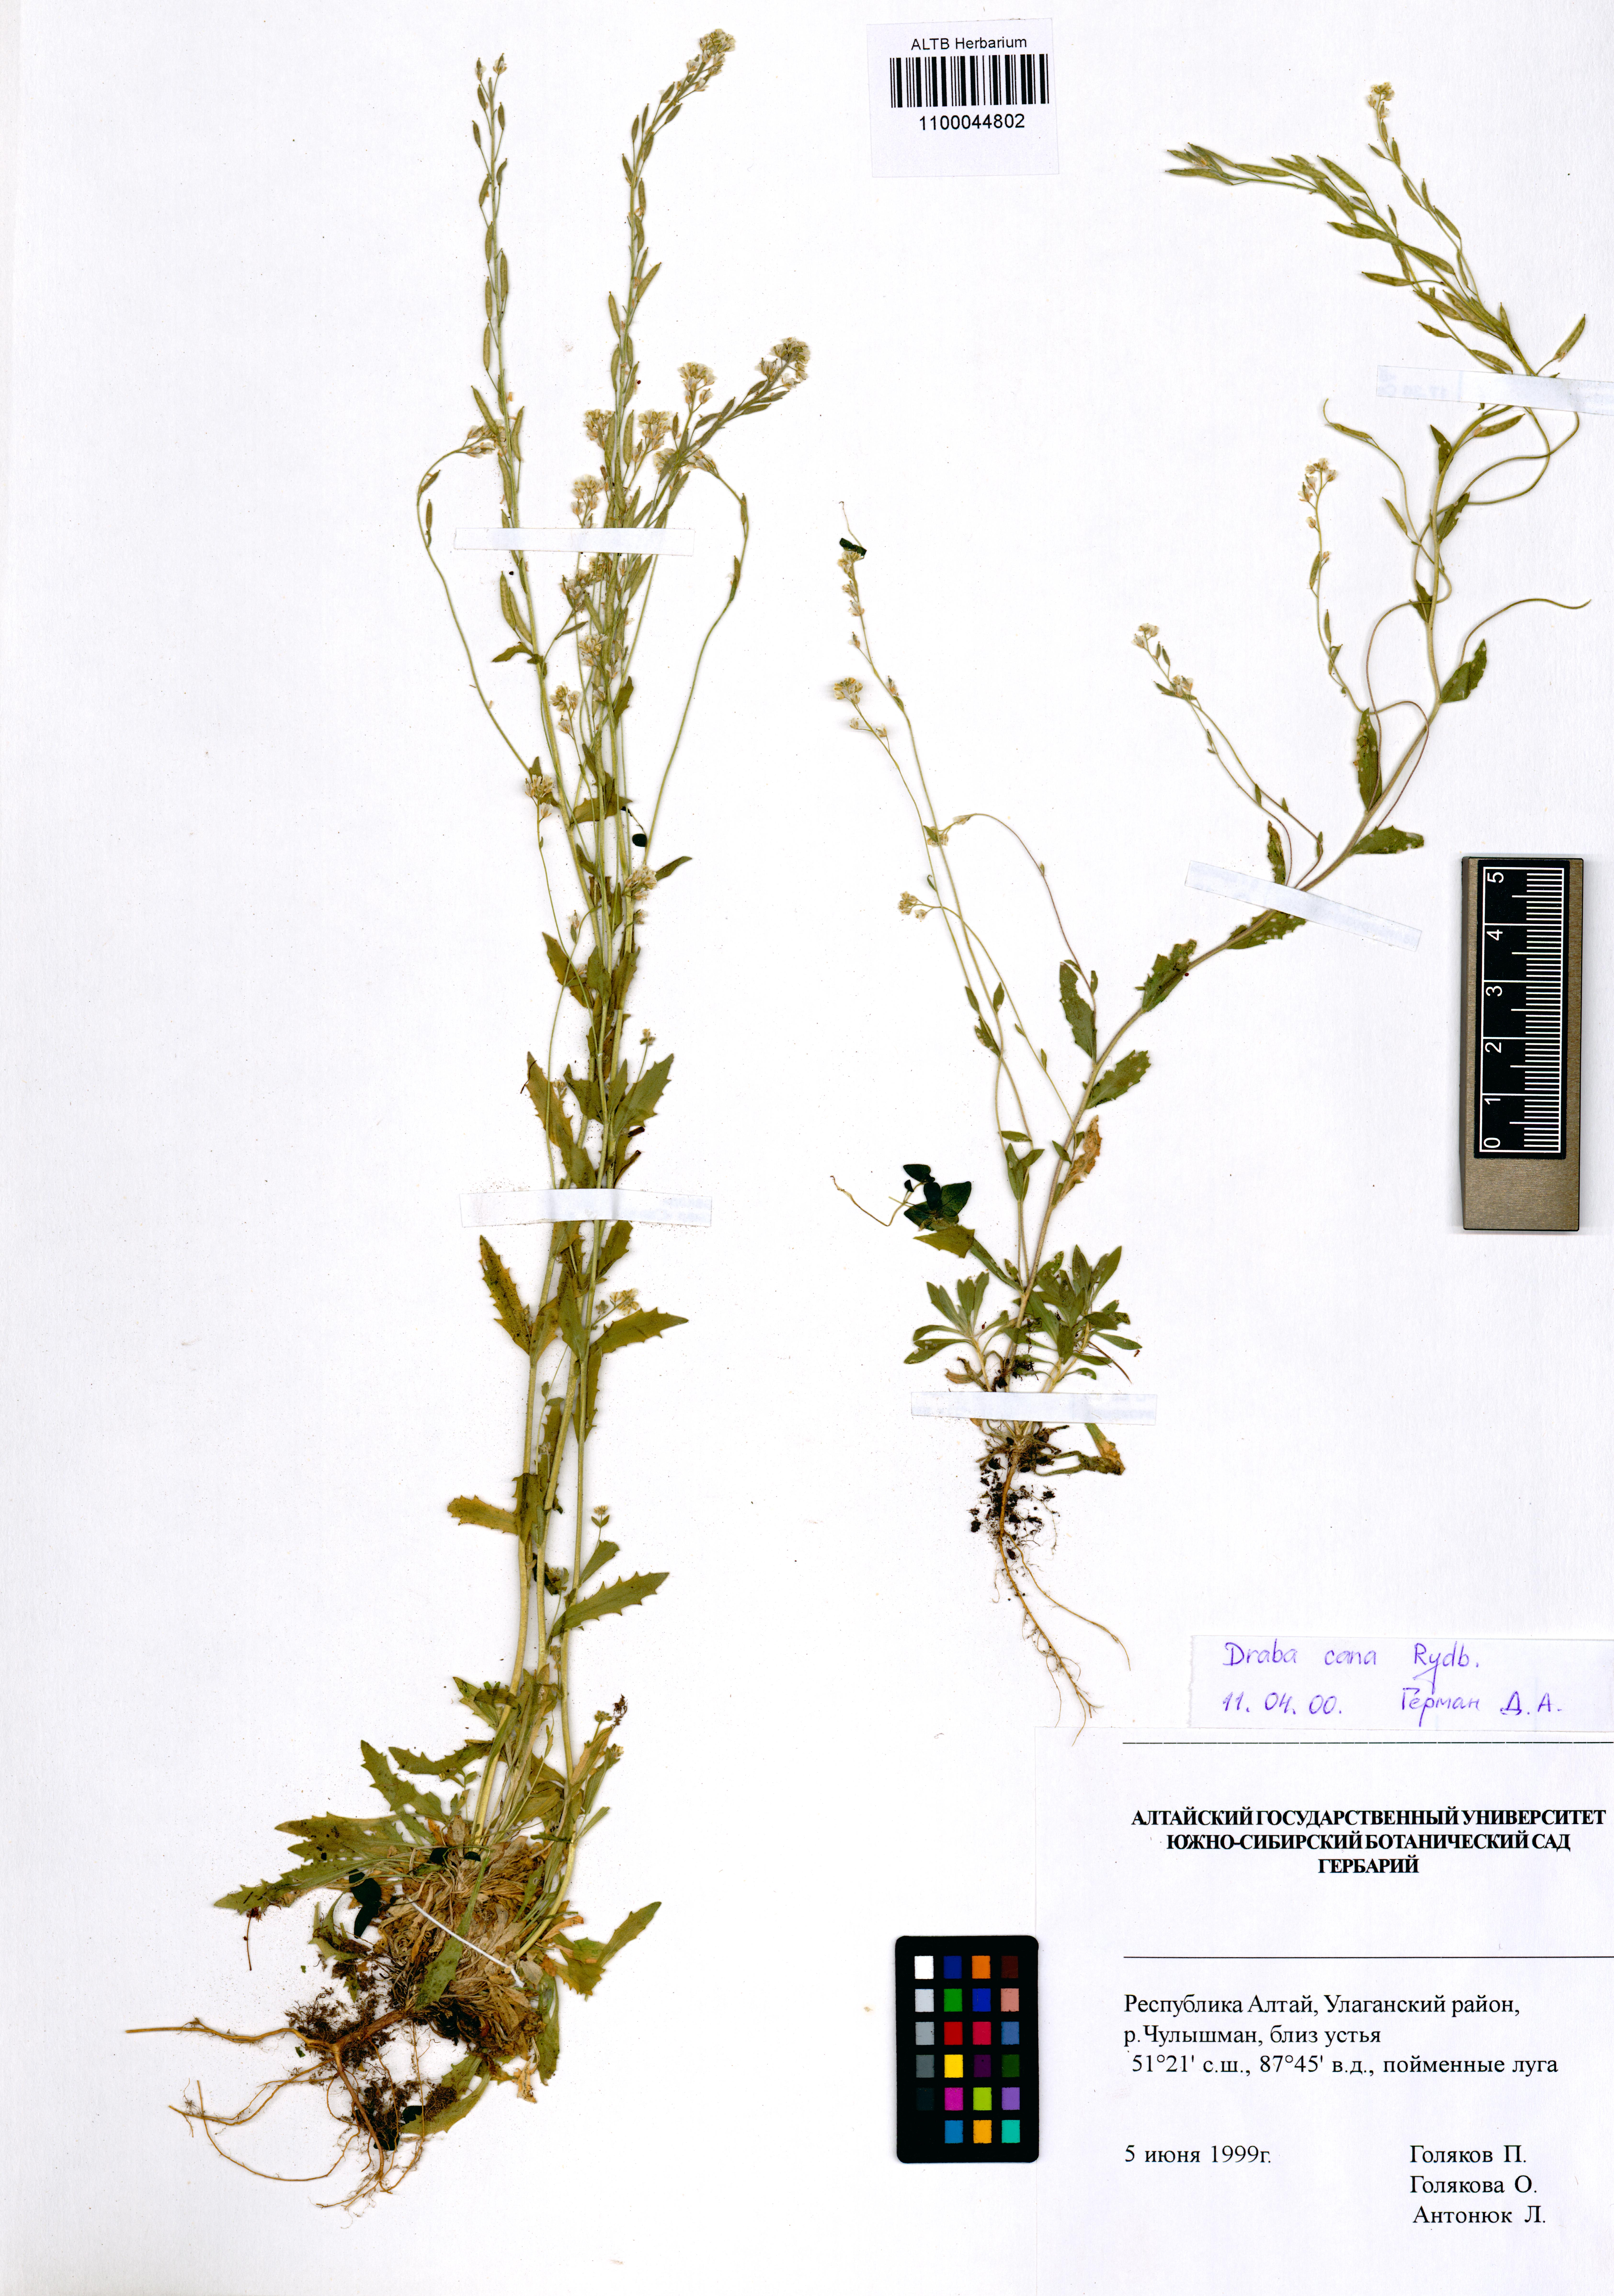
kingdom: Plantae
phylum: Tracheophyta
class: Magnoliopsida
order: Brassicales
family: Brassicaceae
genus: Draba
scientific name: Draba cana
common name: Hoary draba
